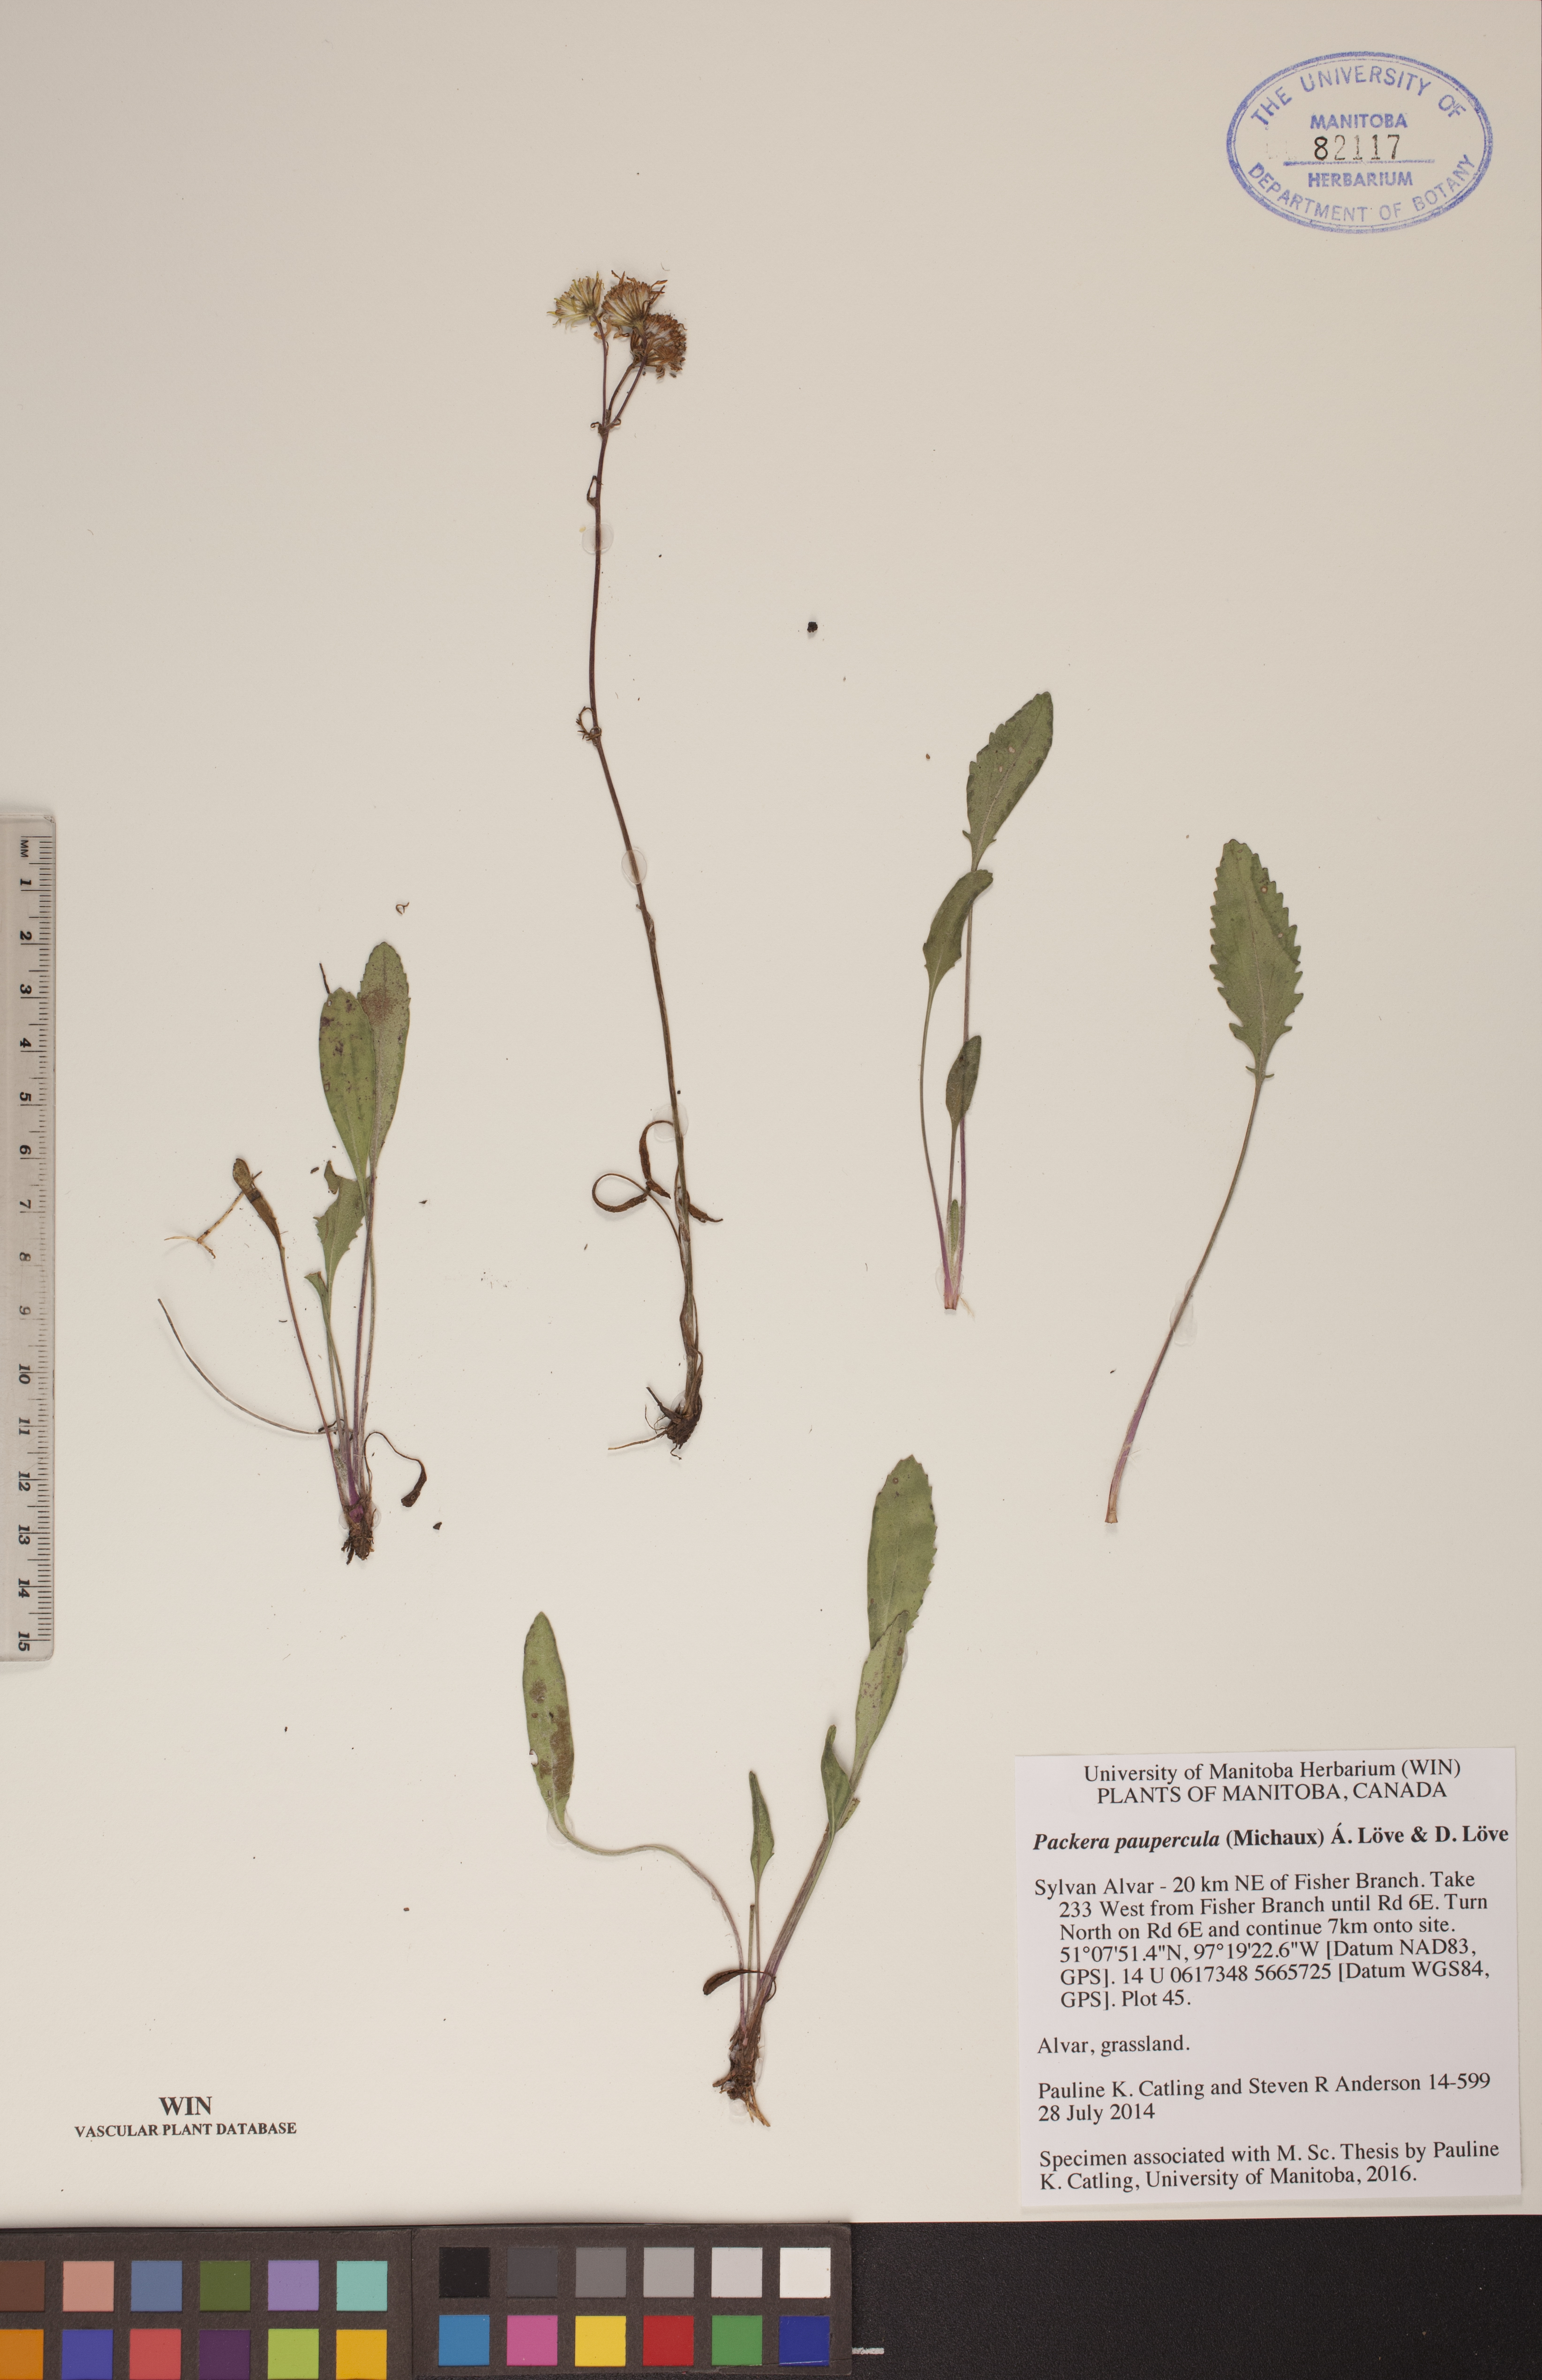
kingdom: Plantae
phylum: Tracheophyta
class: Magnoliopsida
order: Asterales
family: Asteraceae
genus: Packera
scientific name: Packera paupercula
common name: Balsam groundsel
